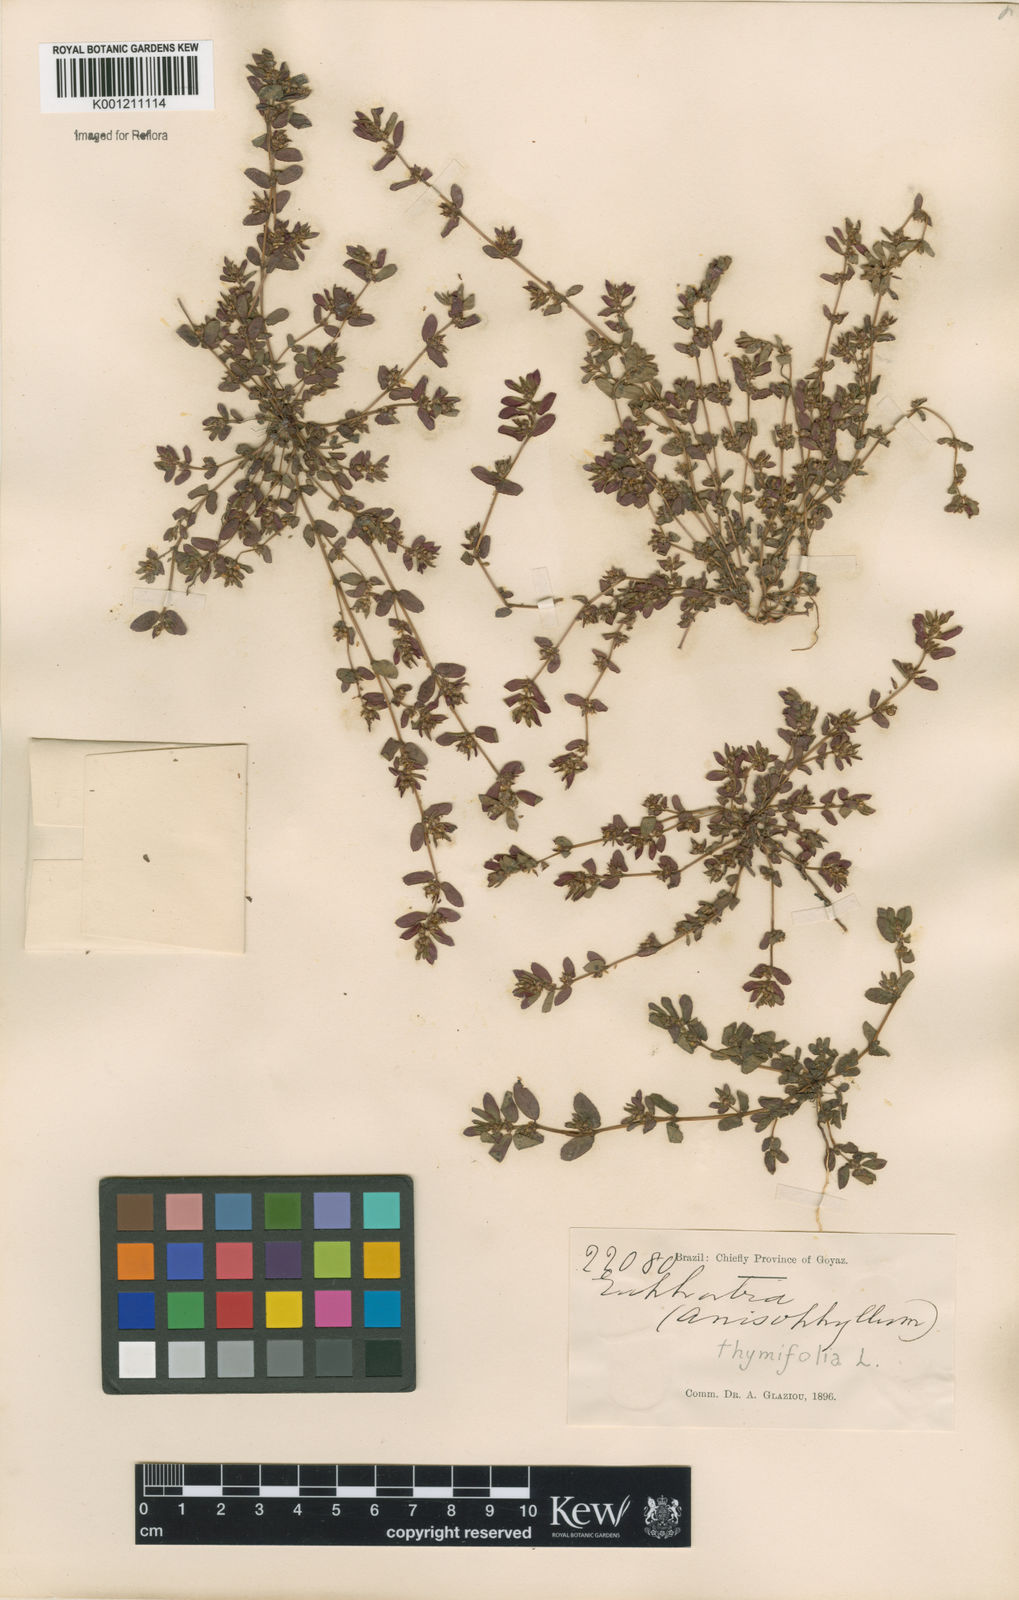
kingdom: Plantae
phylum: Tracheophyta
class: Magnoliopsida
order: Malpighiales
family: Euphorbiaceae
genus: Euphorbia
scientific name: Euphorbia thymifolia
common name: Gulf sandmat
